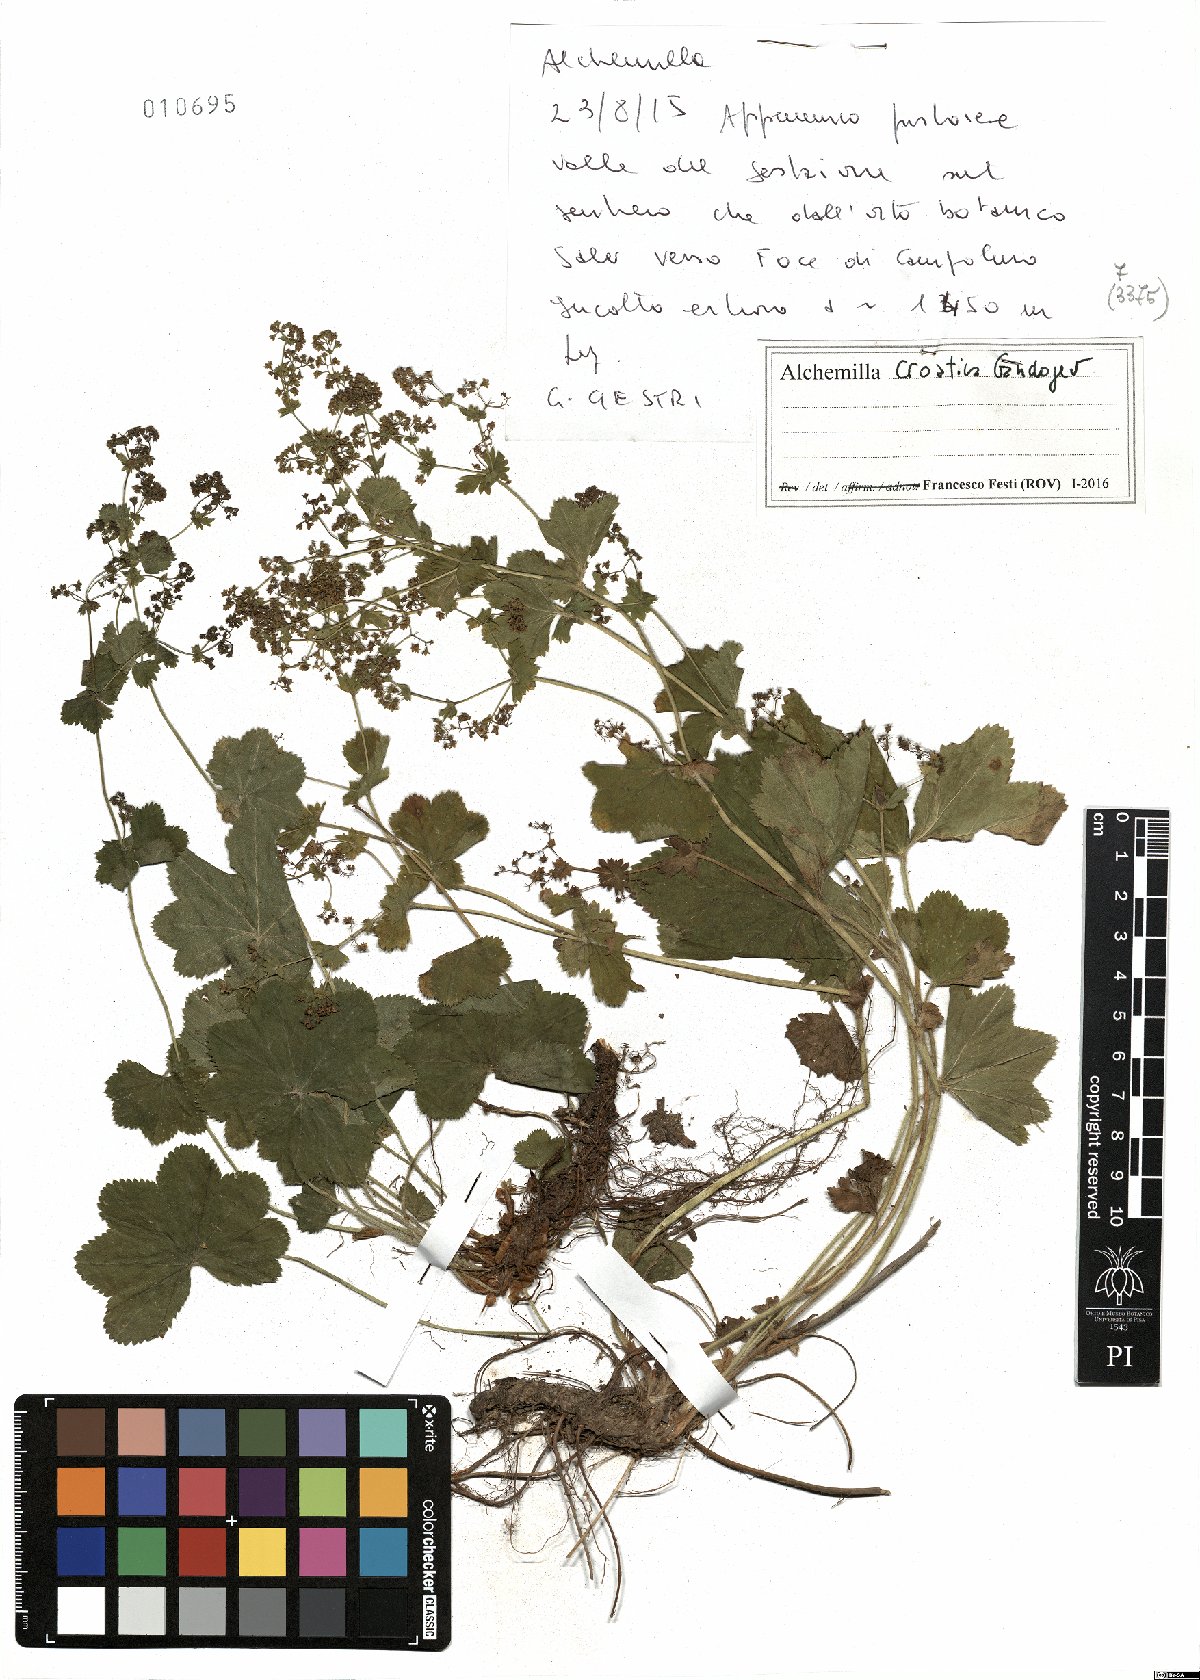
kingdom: Plantae
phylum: Tracheophyta
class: Magnoliopsida
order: Rosales
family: Rosaceae
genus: Alchemilla
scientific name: Alchemilla croatica
